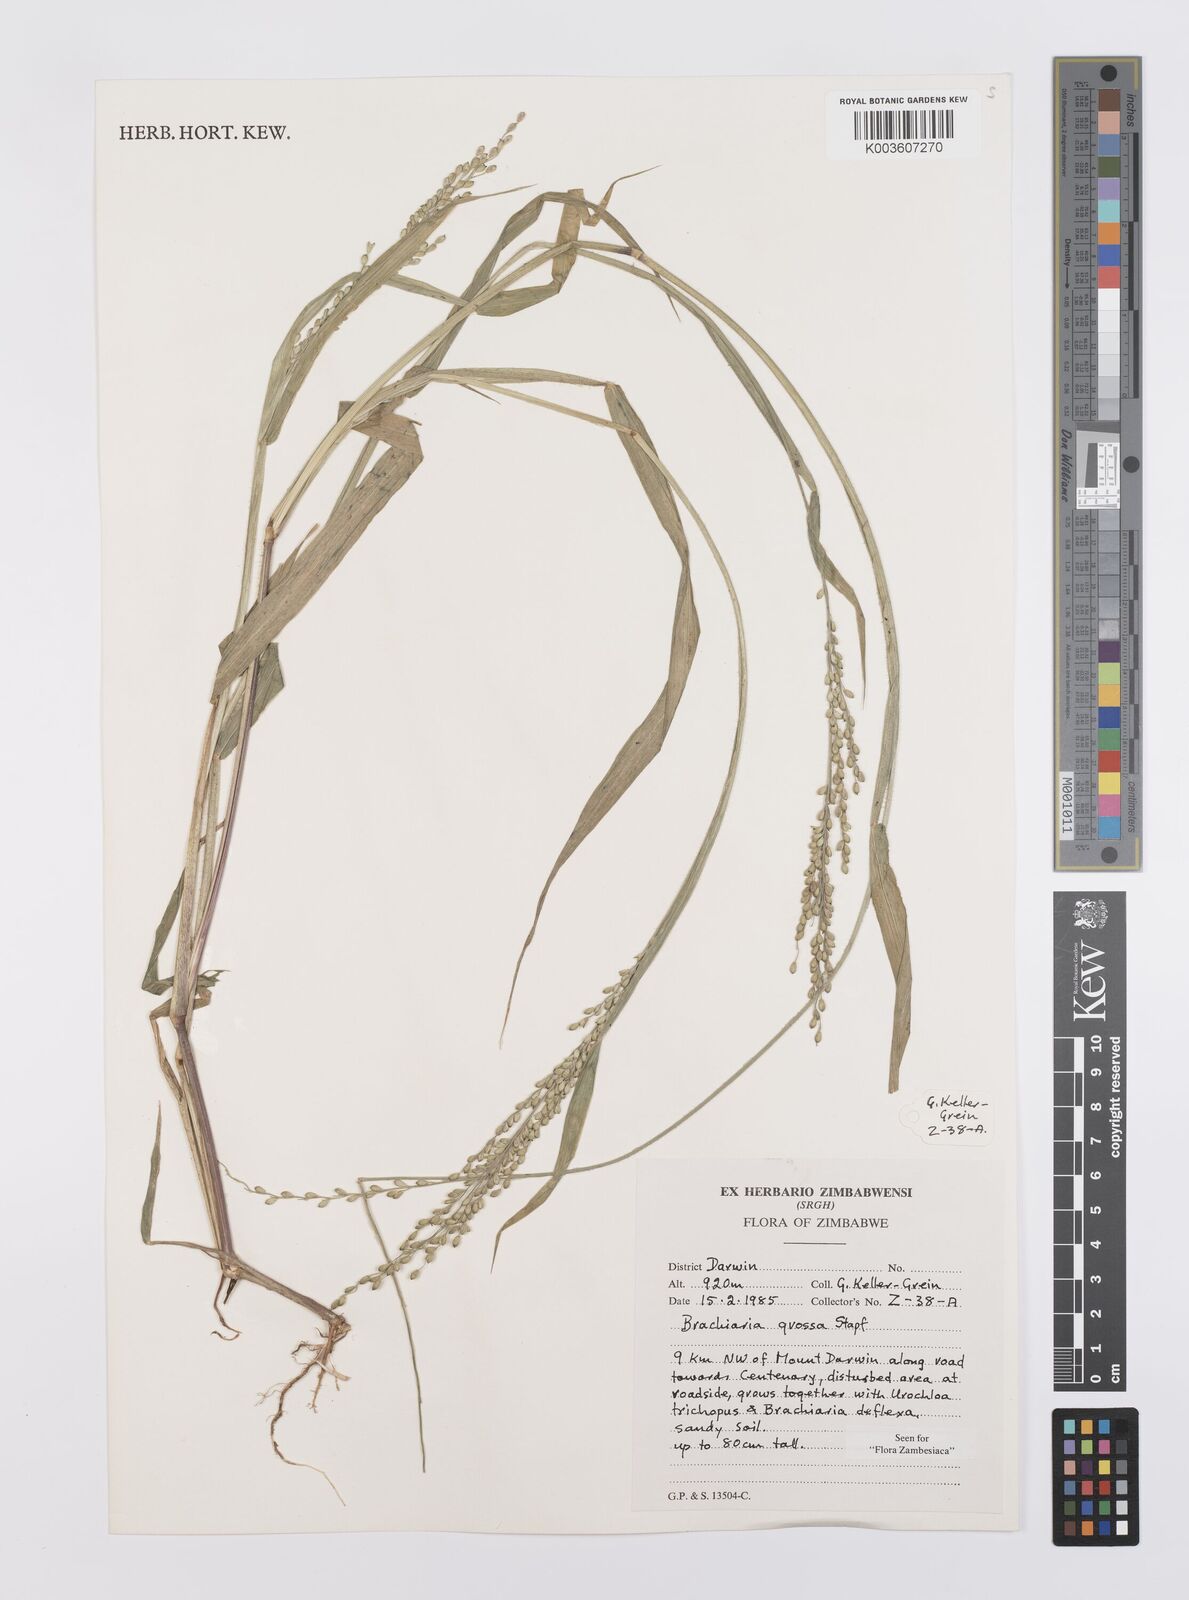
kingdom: Plantae
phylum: Tracheophyta
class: Liliopsida
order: Poales
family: Poaceae
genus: Urochloa
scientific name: Urochloa Brachiaria grossa
